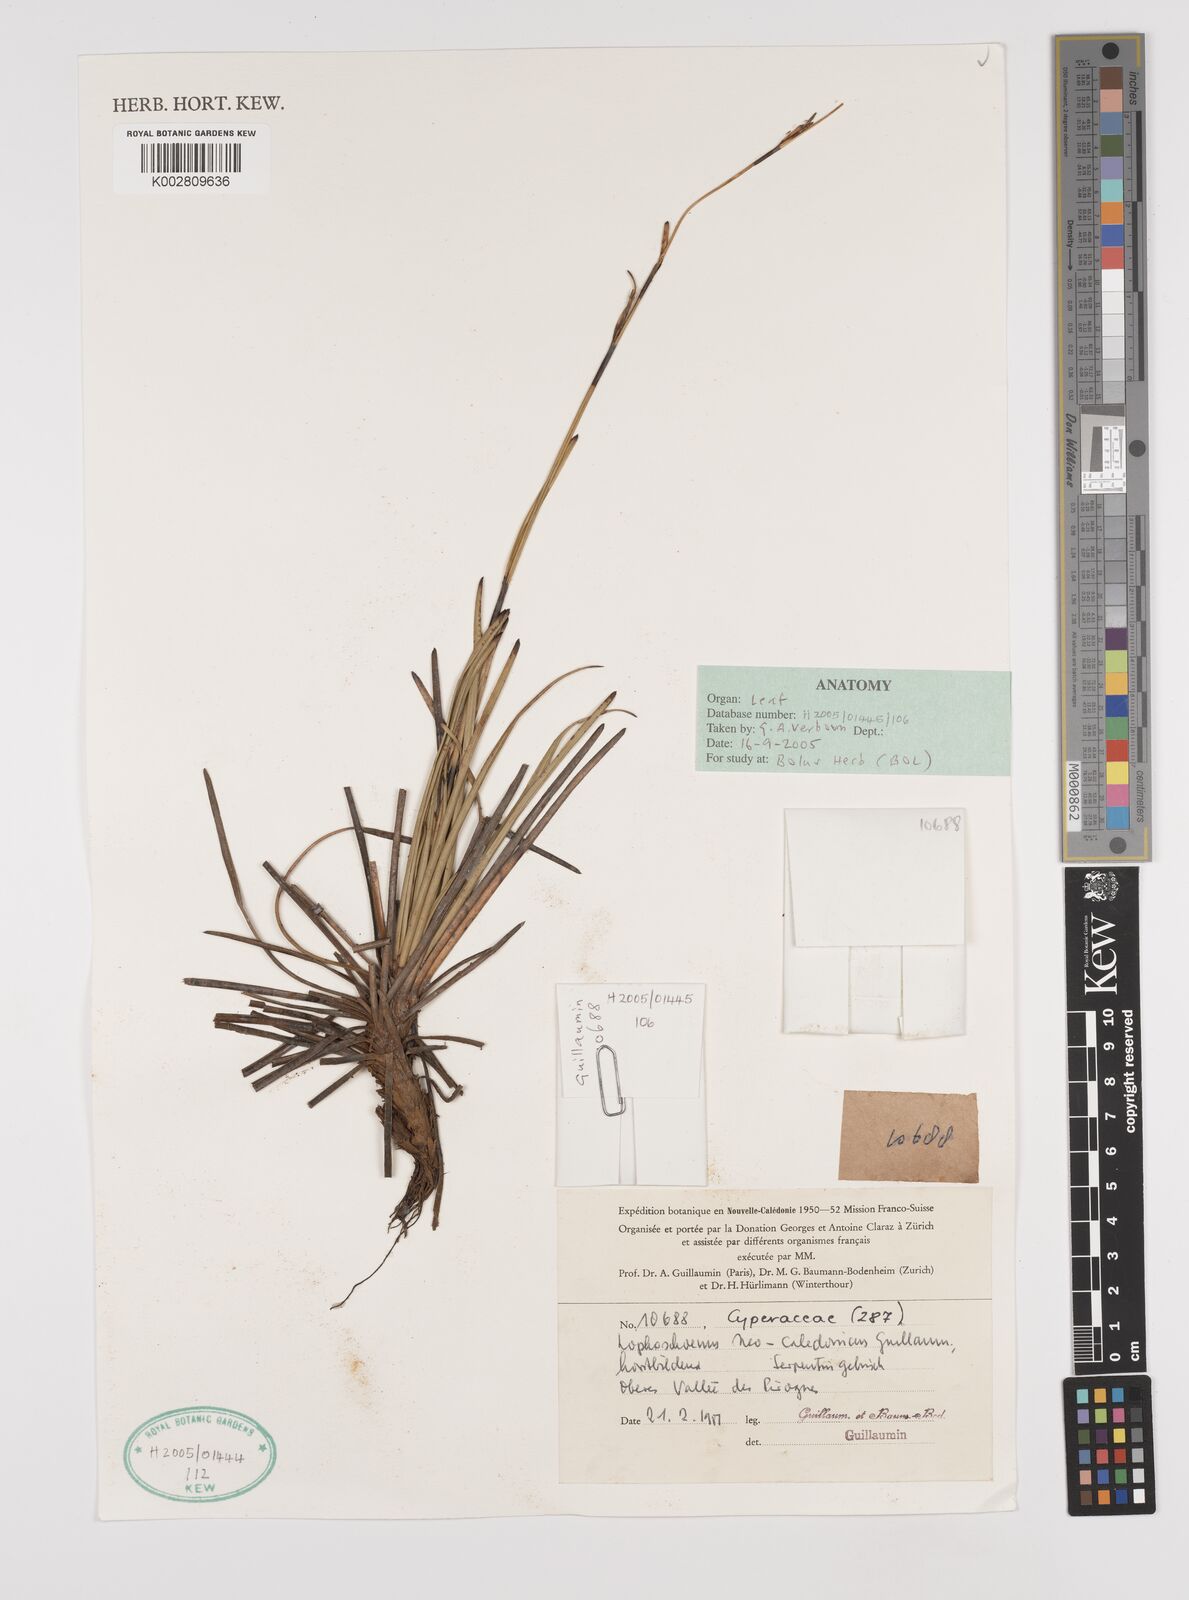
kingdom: Plantae
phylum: Tracheophyta
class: Liliopsida
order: Poales
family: Cyperaceae
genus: Schoenus
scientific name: Schoenus neocaledonicus
